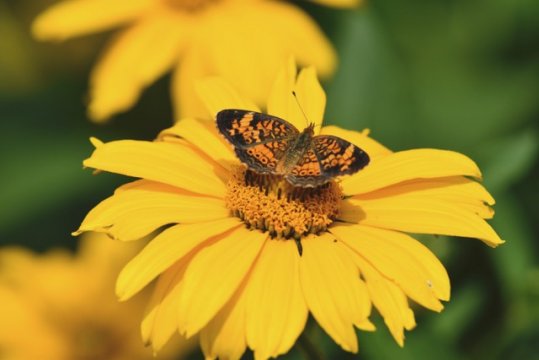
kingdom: Animalia
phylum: Arthropoda
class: Insecta
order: Lepidoptera
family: Nymphalidae
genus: Mechanitis
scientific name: Mechanitis
